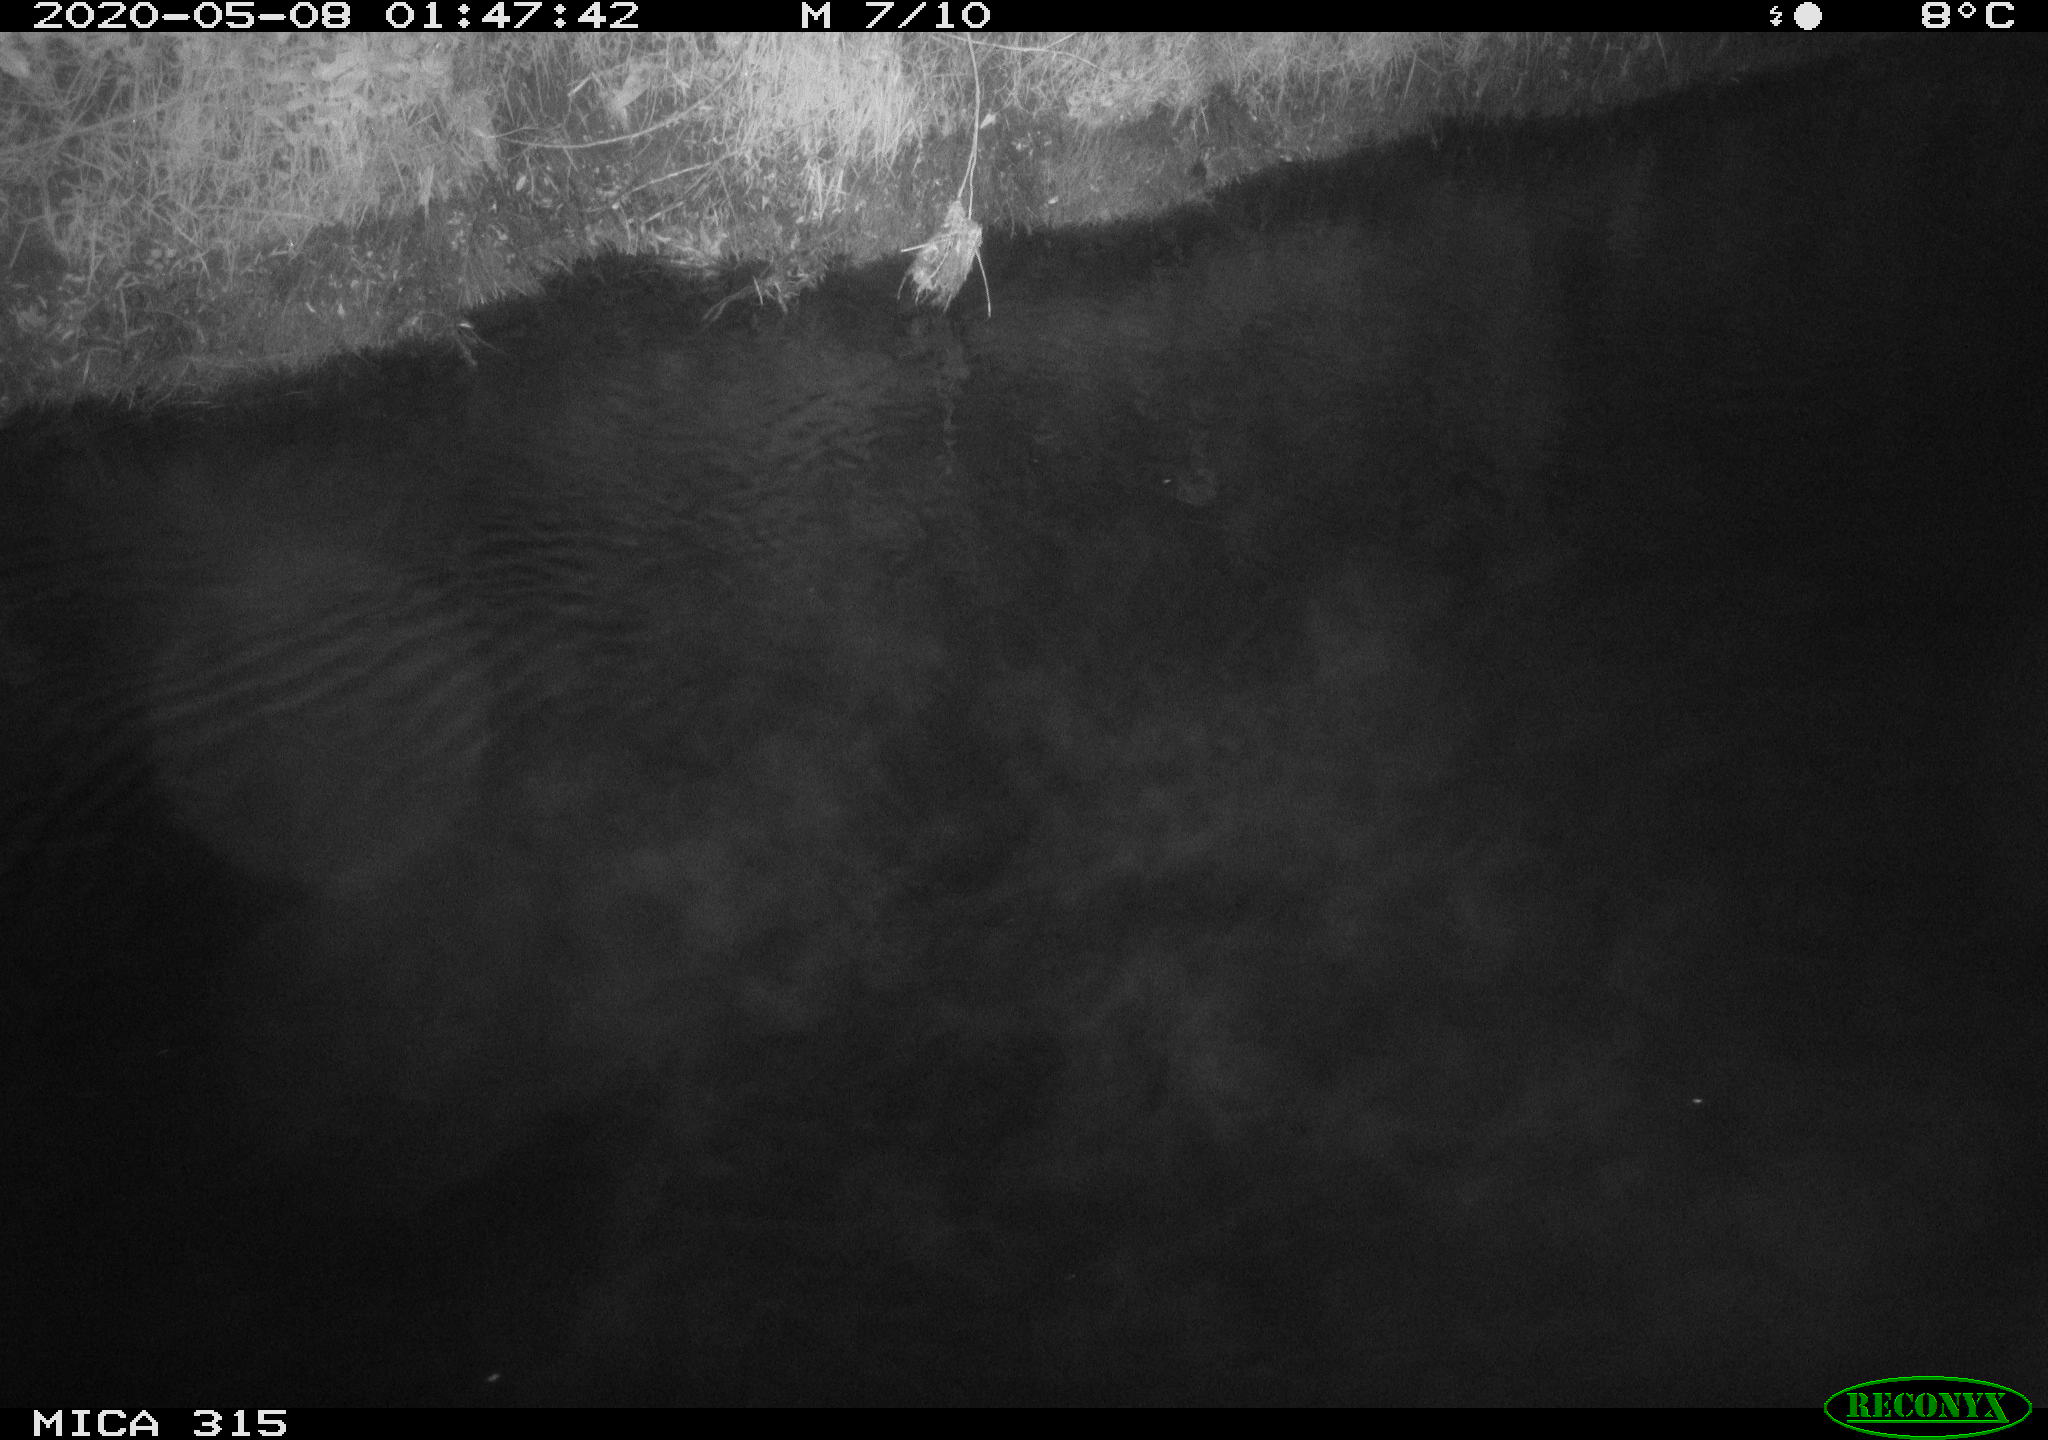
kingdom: Animalia
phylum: Chordata
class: Aves
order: Anseriformes
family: Anatidae
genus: Anas
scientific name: Anas platyrhynchos
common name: Mallard
